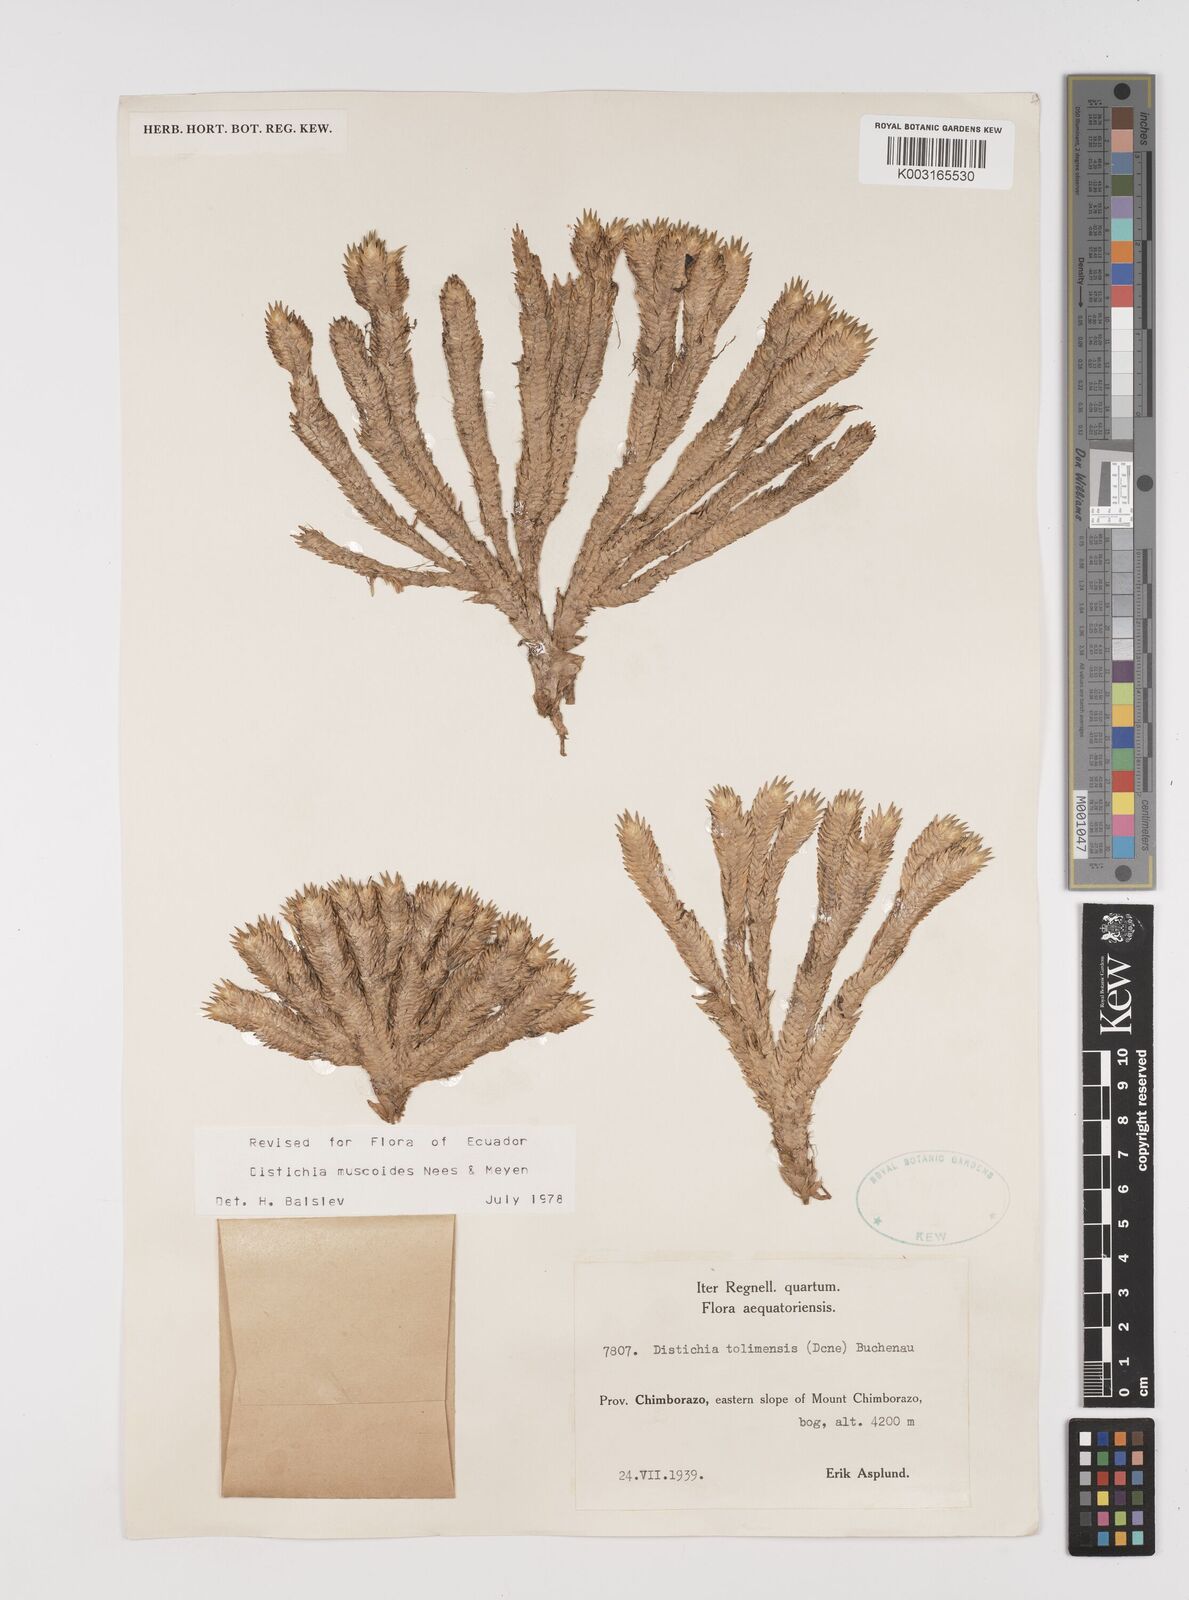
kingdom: Plantae
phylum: Tracheophyta
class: Liliopsida
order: Poales
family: Juncaceae
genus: Distichia
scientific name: Distichia muscoides
